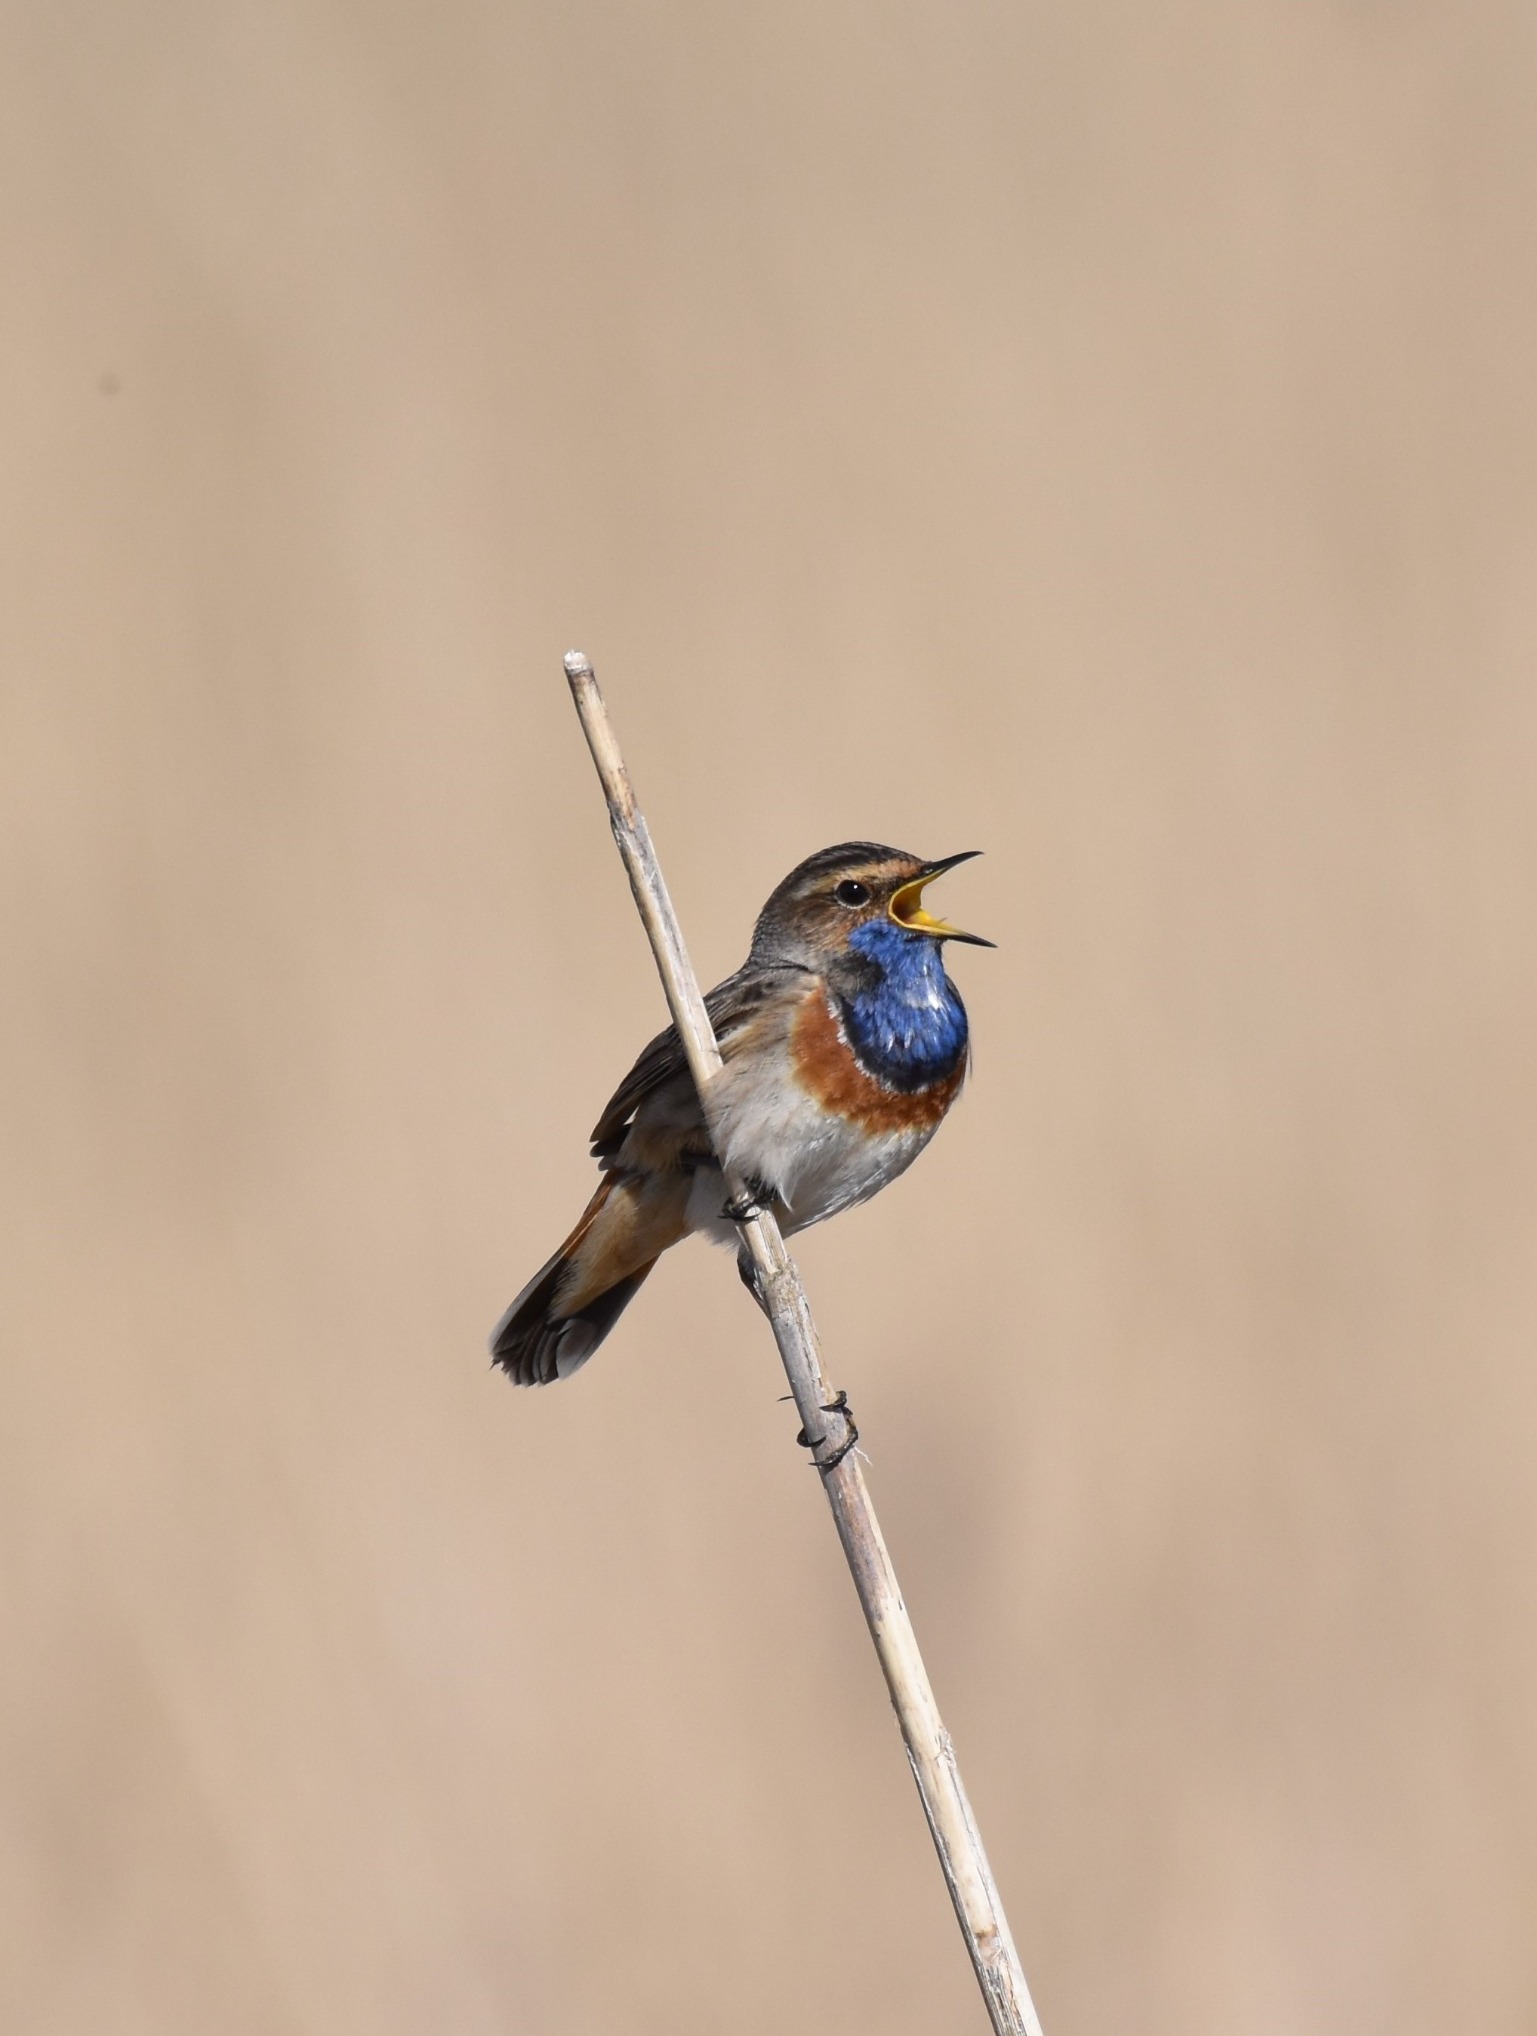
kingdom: Animalia
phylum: Chordata
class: Aves
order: Passeriformes
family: Muscicapidae
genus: Luscinia
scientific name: Luscinia svecica
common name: Blåhals
